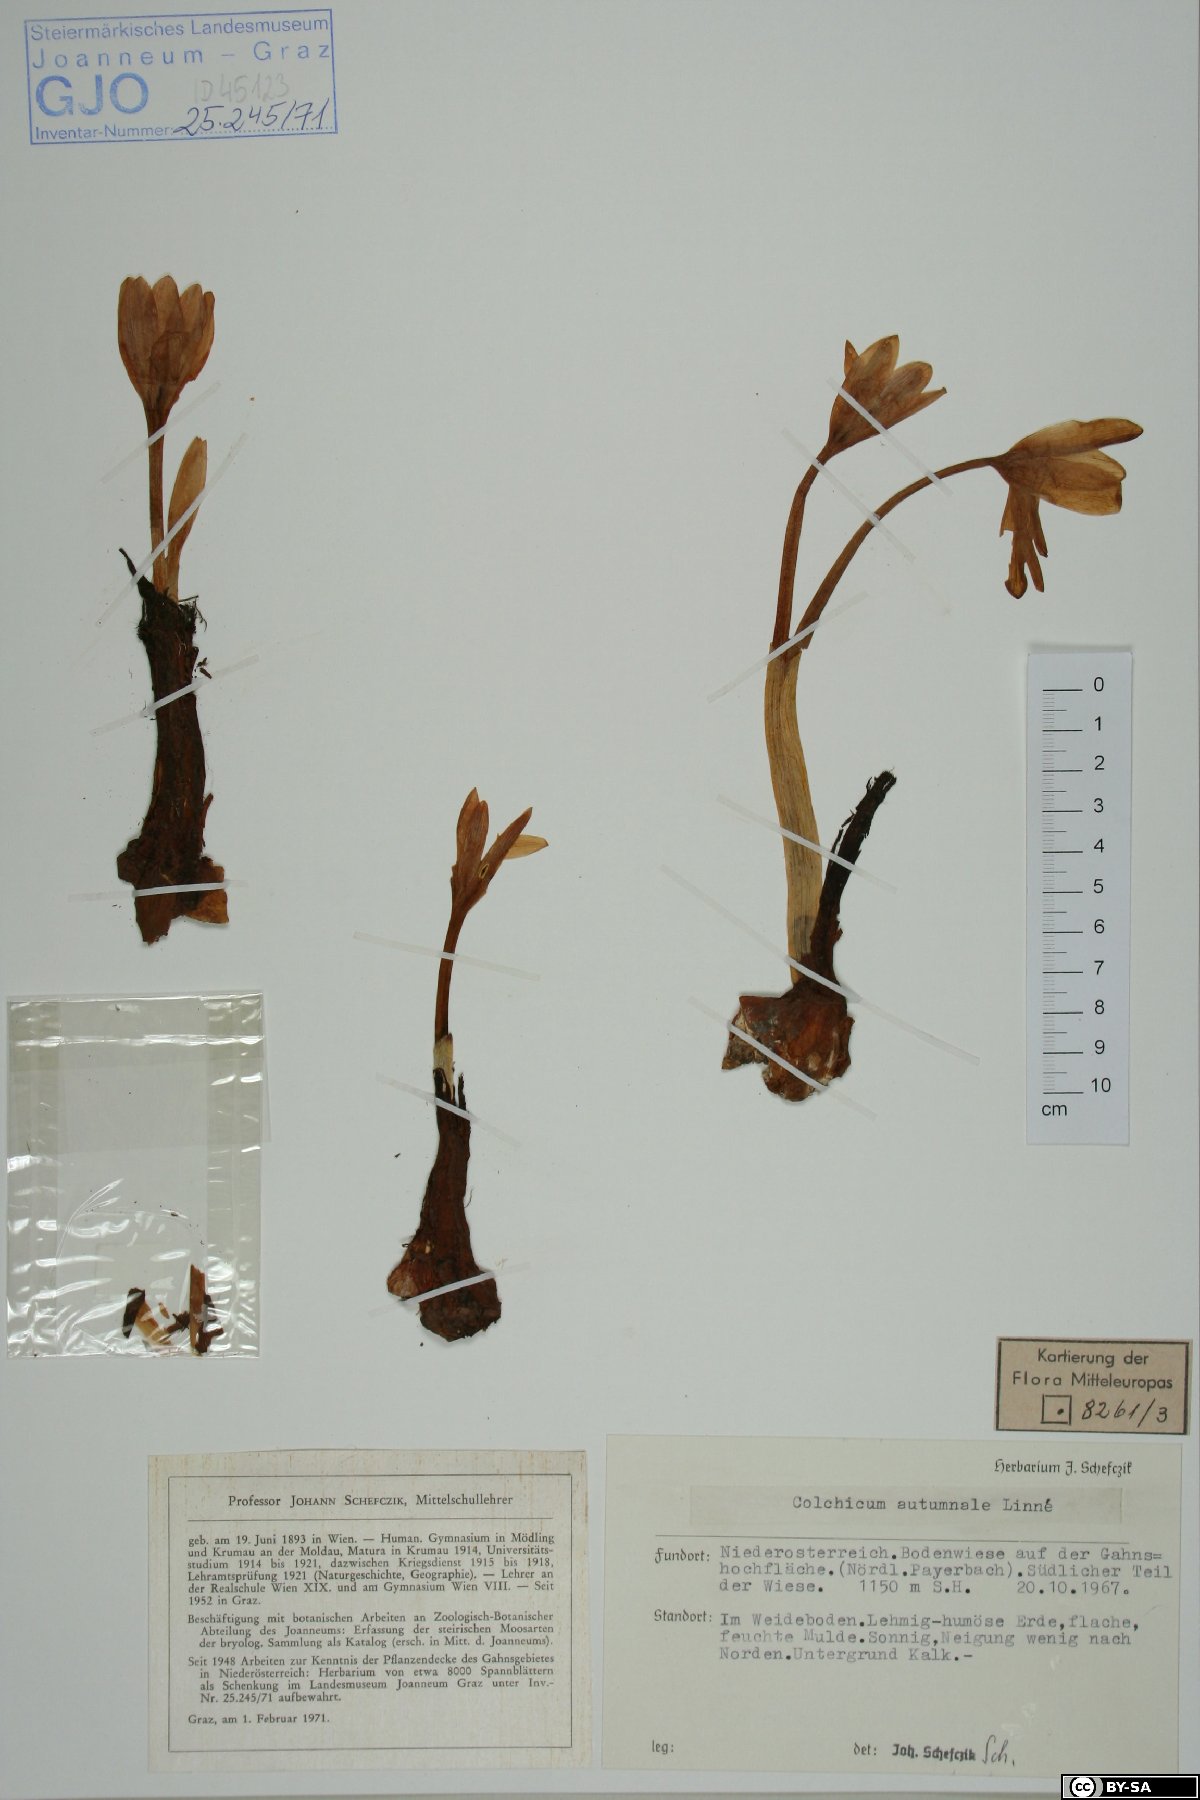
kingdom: Plantae
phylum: Tracheophyta
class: Liliopsida
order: Liliales
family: Colchicaceae
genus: Colchicum
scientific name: Colchicum autumnale
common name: Autumn crocus
